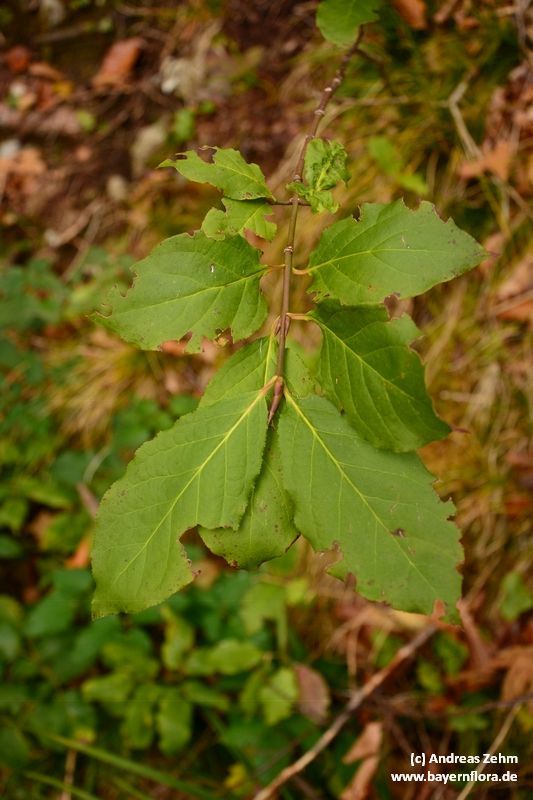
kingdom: Plantae
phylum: Tracheophyta
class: Magnoliopsida
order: Celastrales
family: Celastraceae
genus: Euonymus
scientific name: Euonymus latifolius
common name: Large-leaved spindle
